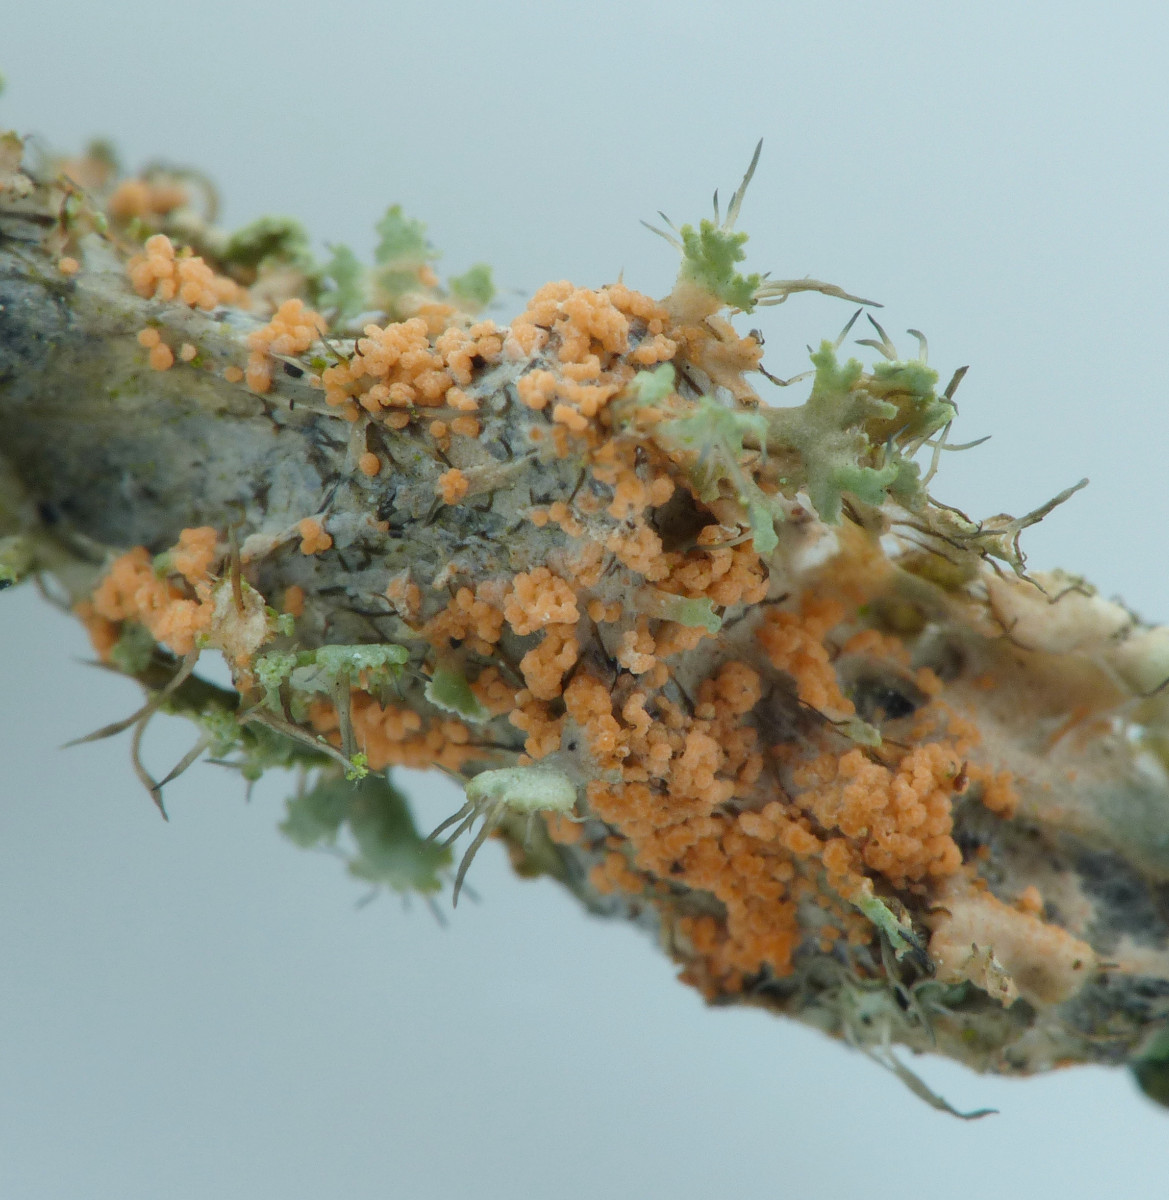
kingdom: Fungi
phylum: Basidiomycota
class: Agaricomycetes
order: Corticiales
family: Corticiaceae
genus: Erythricium
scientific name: Erythricium aurantiacum
